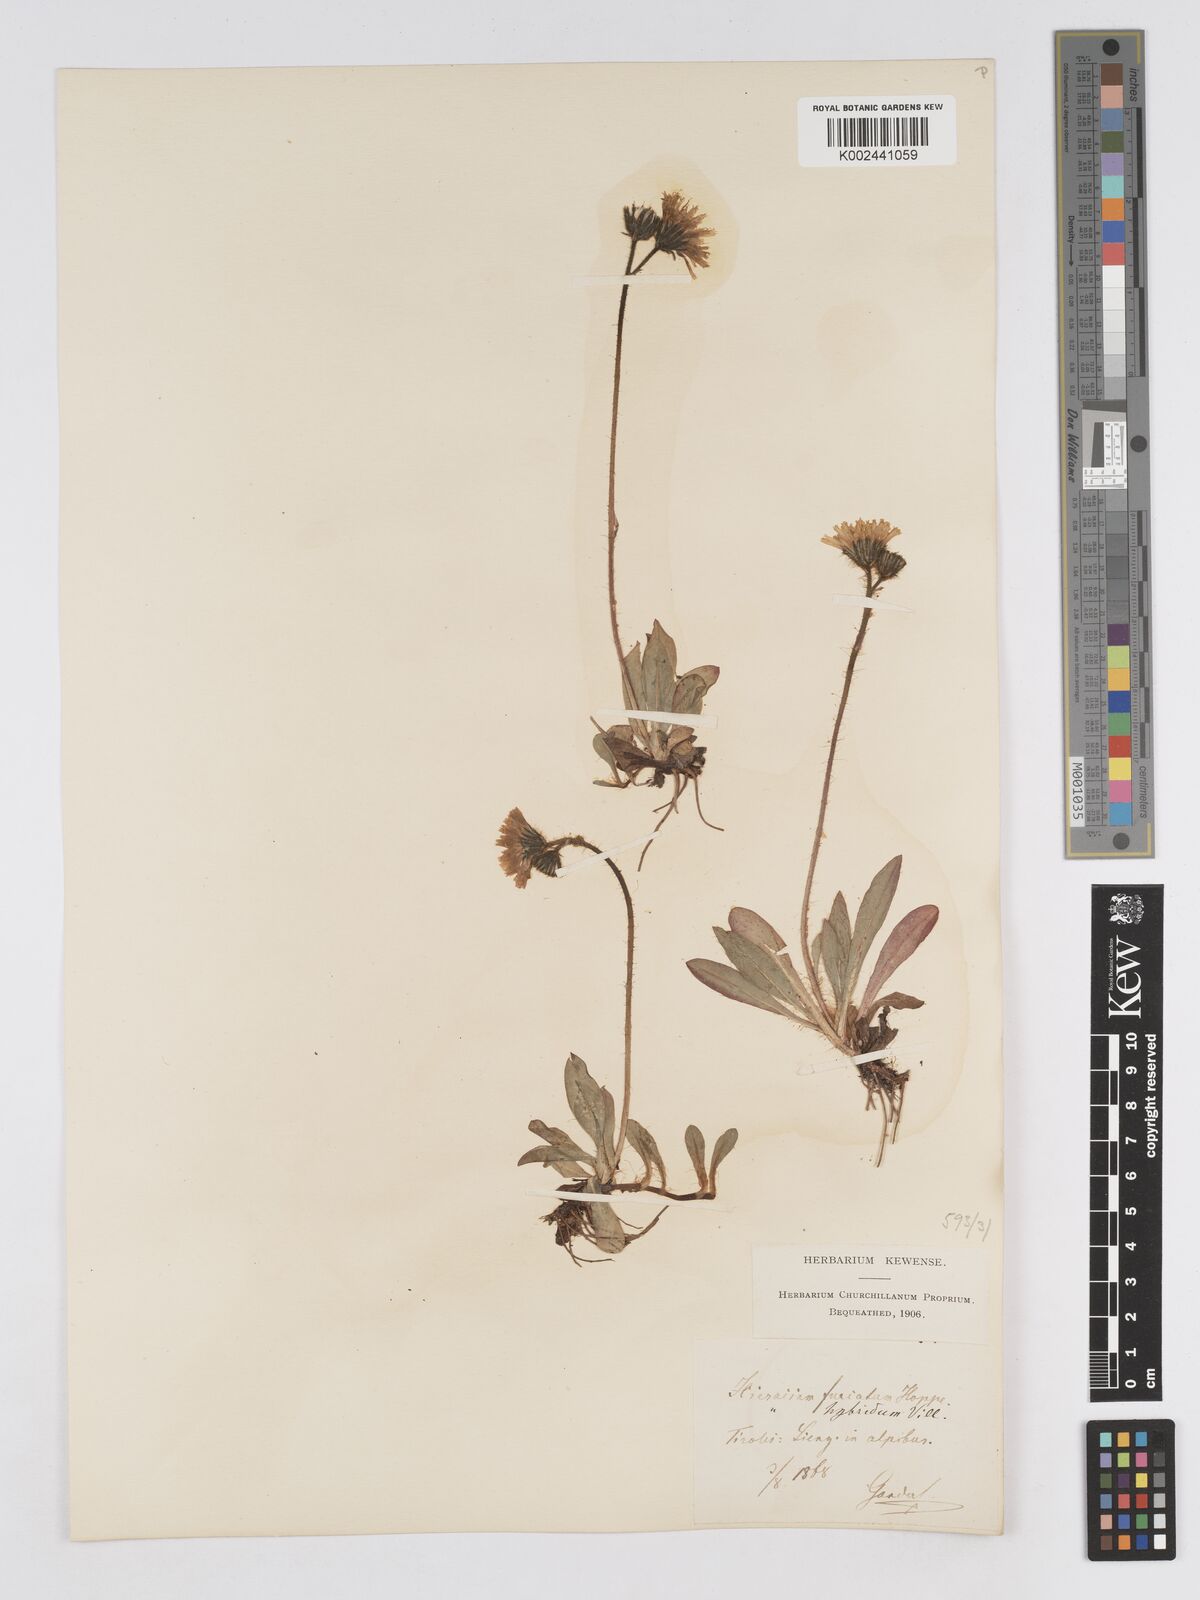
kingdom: Plantae
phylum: Tracheophyta
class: Magnoliopsida
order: Asterales
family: Asteraceae
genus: Pilosella
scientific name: Pilosella sphaerocephala
